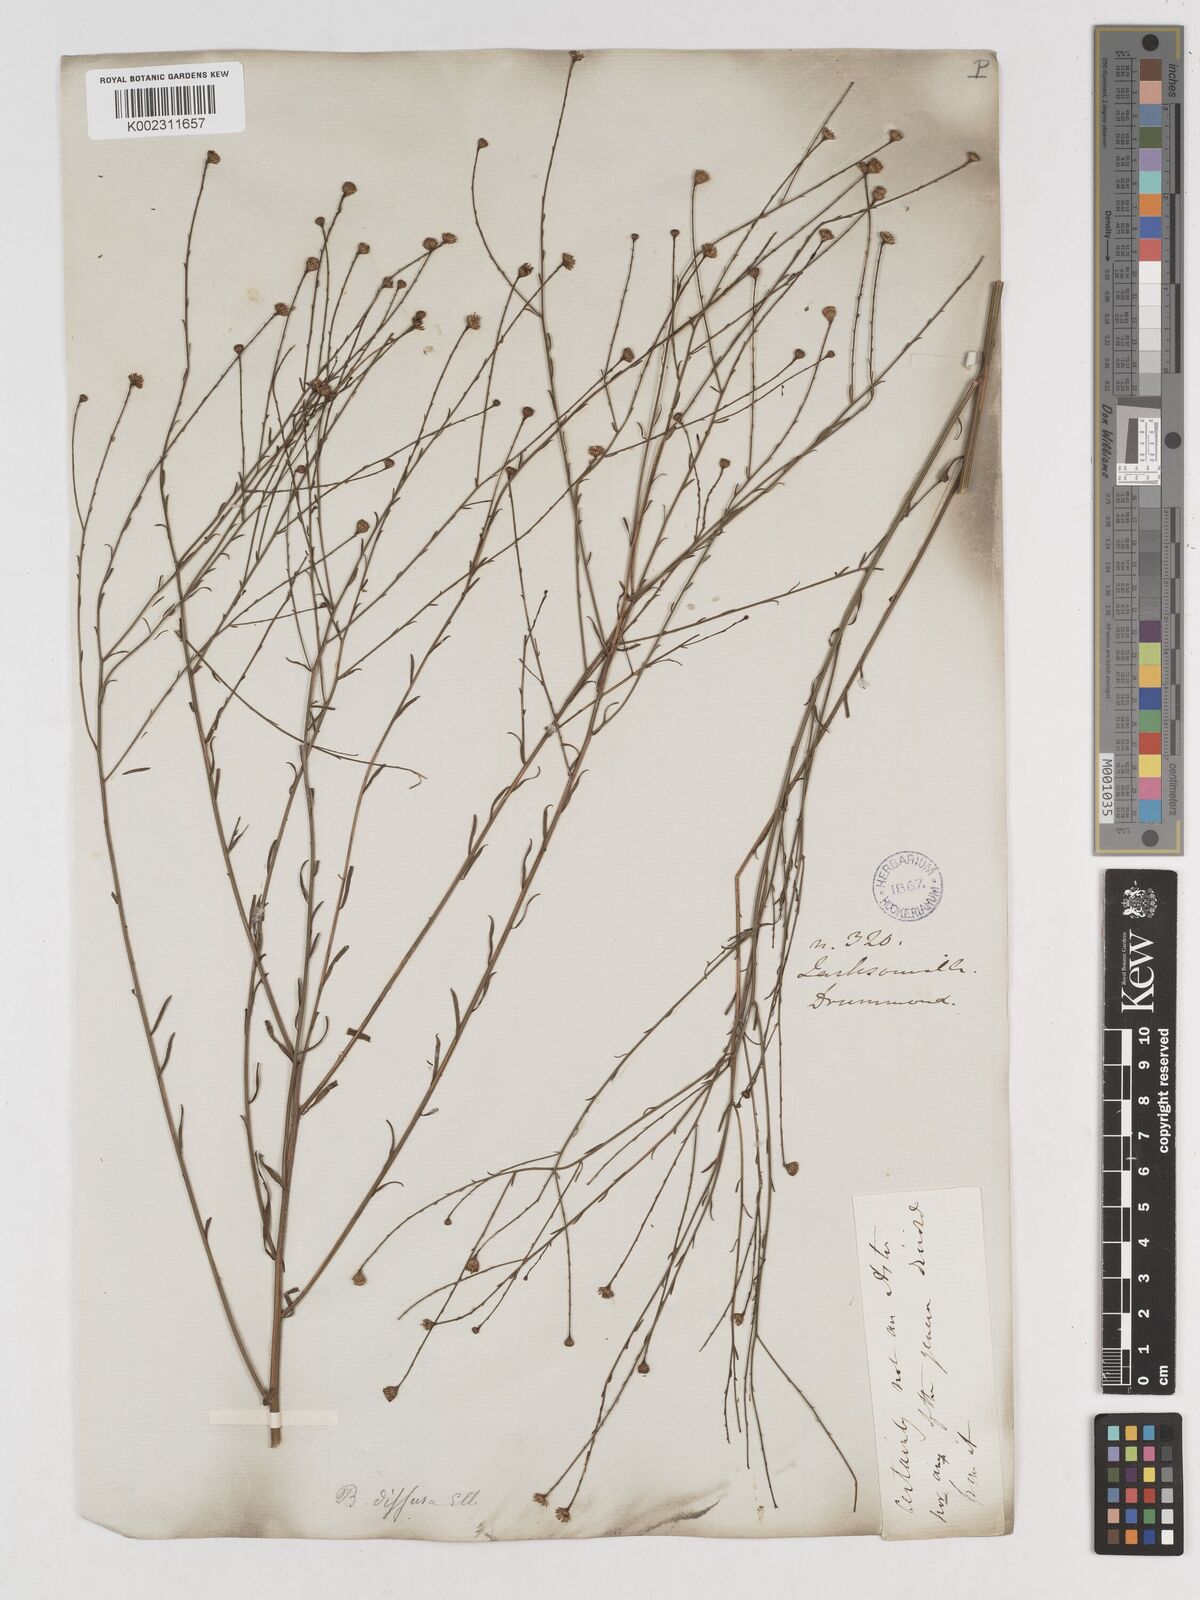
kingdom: Plantae
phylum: Tracheophyta
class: Magnoliopsida
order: Asterales
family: Asteraceae
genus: Boltonia
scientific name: Boltonia diffusa
